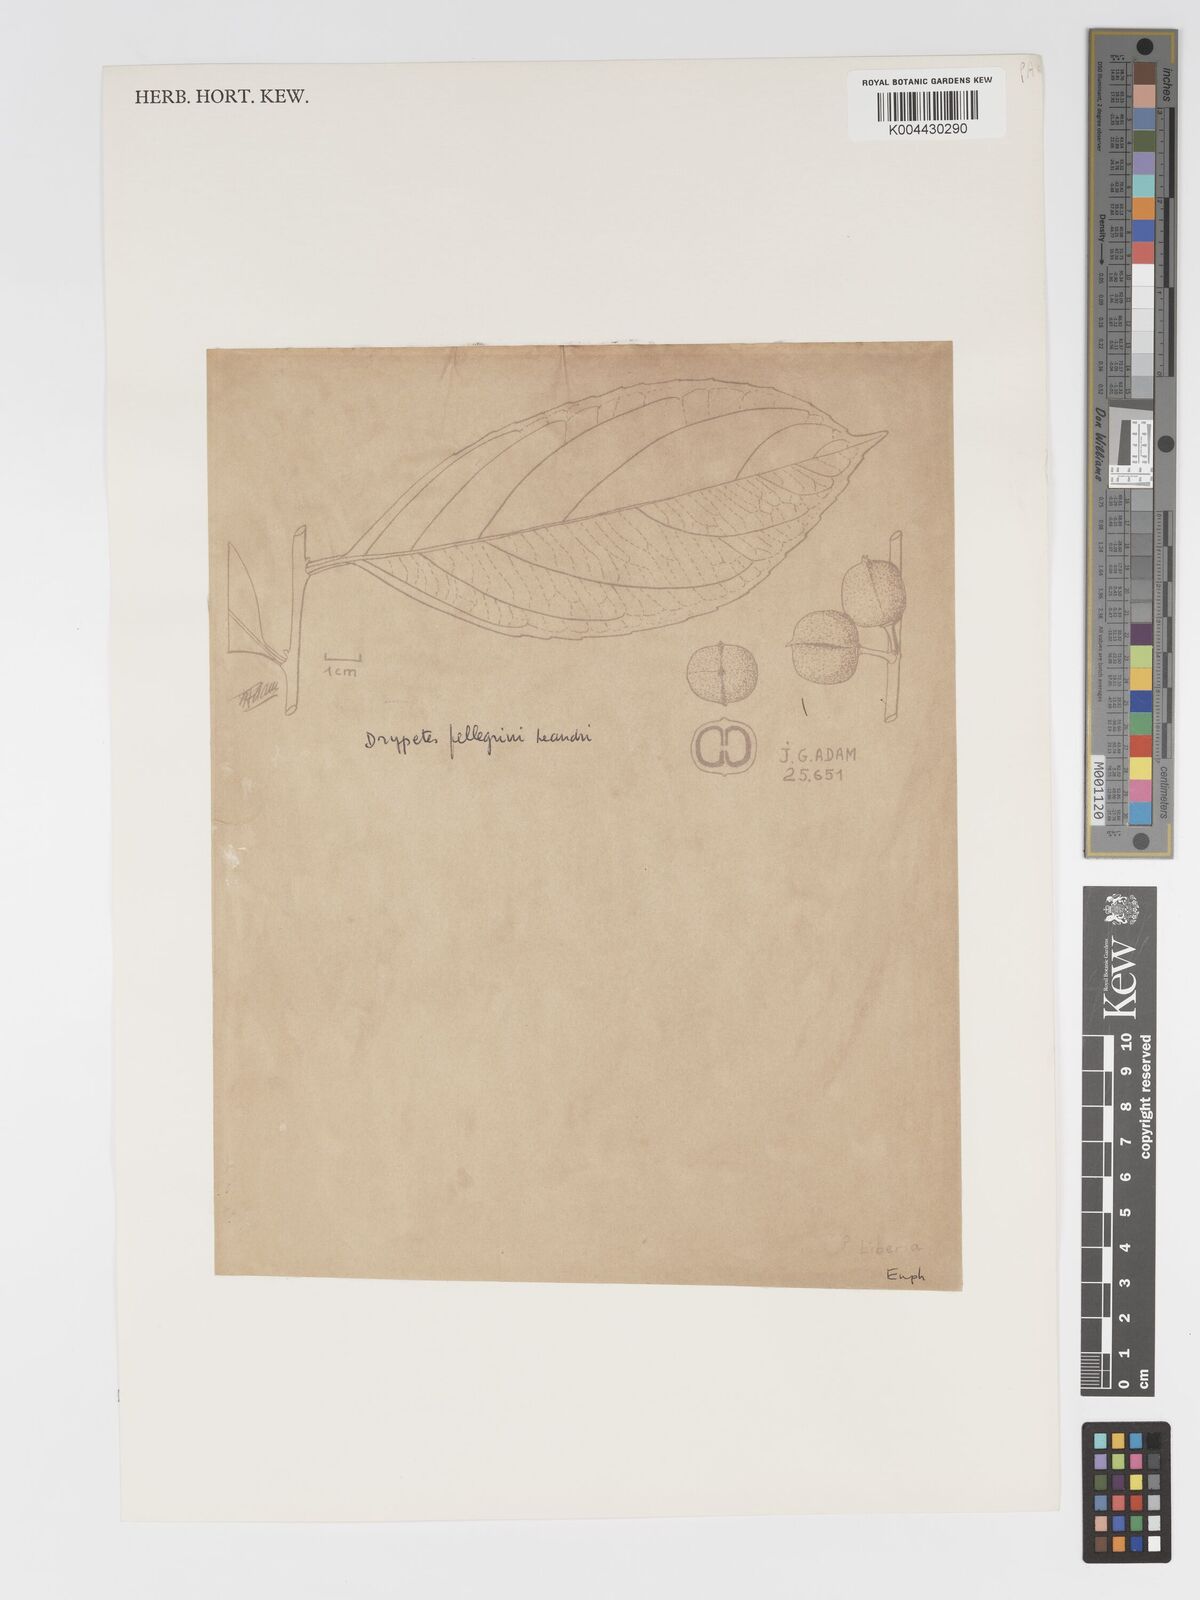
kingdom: Plantae
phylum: Tracheophyta
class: Magnoliopsida
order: Malpighiales
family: Putranjivaceae
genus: Drypetes
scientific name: Drypetes pellegrinii
